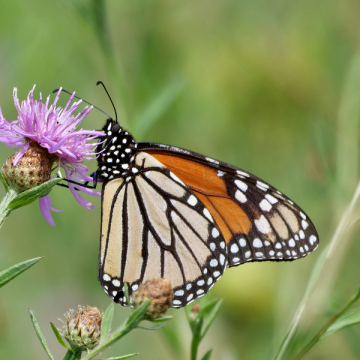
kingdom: Animalia
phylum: Arthropoda
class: Insecta
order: Lepidoptera
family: Nymphalidae
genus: Danaus
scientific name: Danaus plexippus
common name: Monarch
